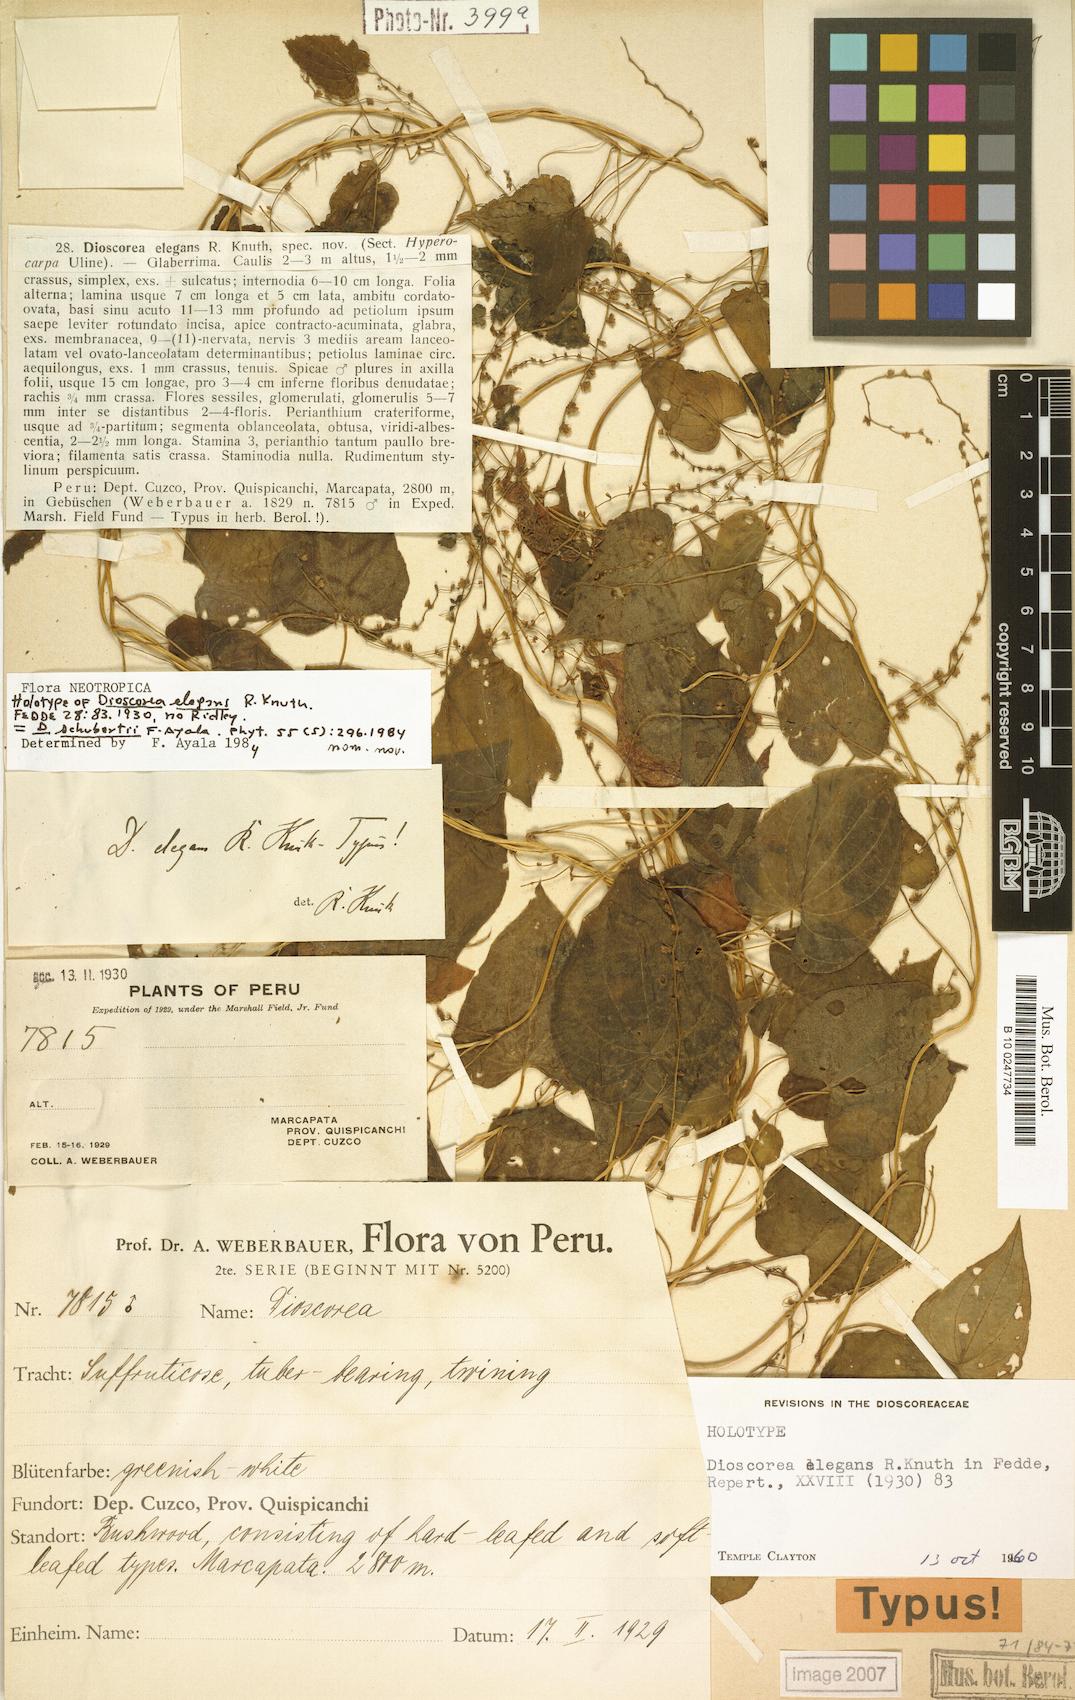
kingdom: Plantae
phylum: Tracheophyta
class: Liliopsida
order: Dioscoreales
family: Dioscoreaceae
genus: Dioscorea
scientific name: Dioscorea schubertii
